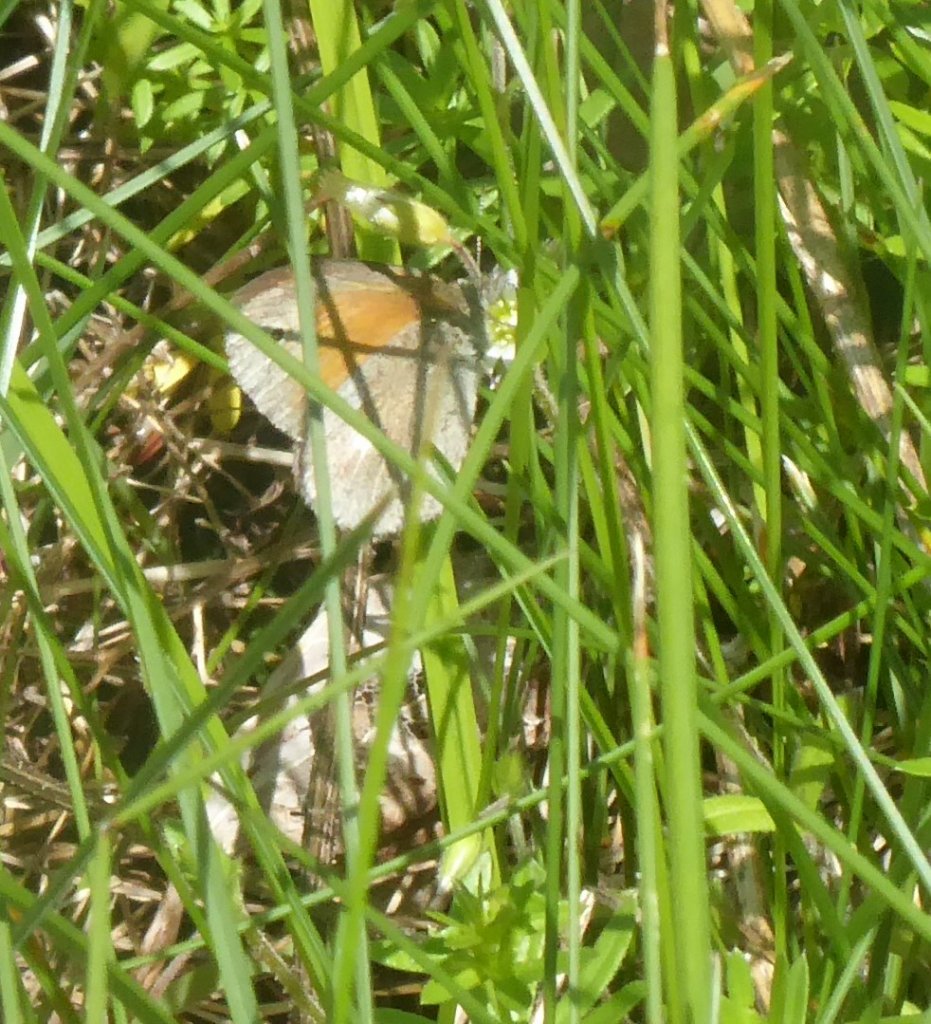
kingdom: Animalia
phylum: Arthropoda
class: Insecta
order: Lepidoptera
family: Nymphalidae
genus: Coenonympha
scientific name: Coenonympha tullia
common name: Large Heath
